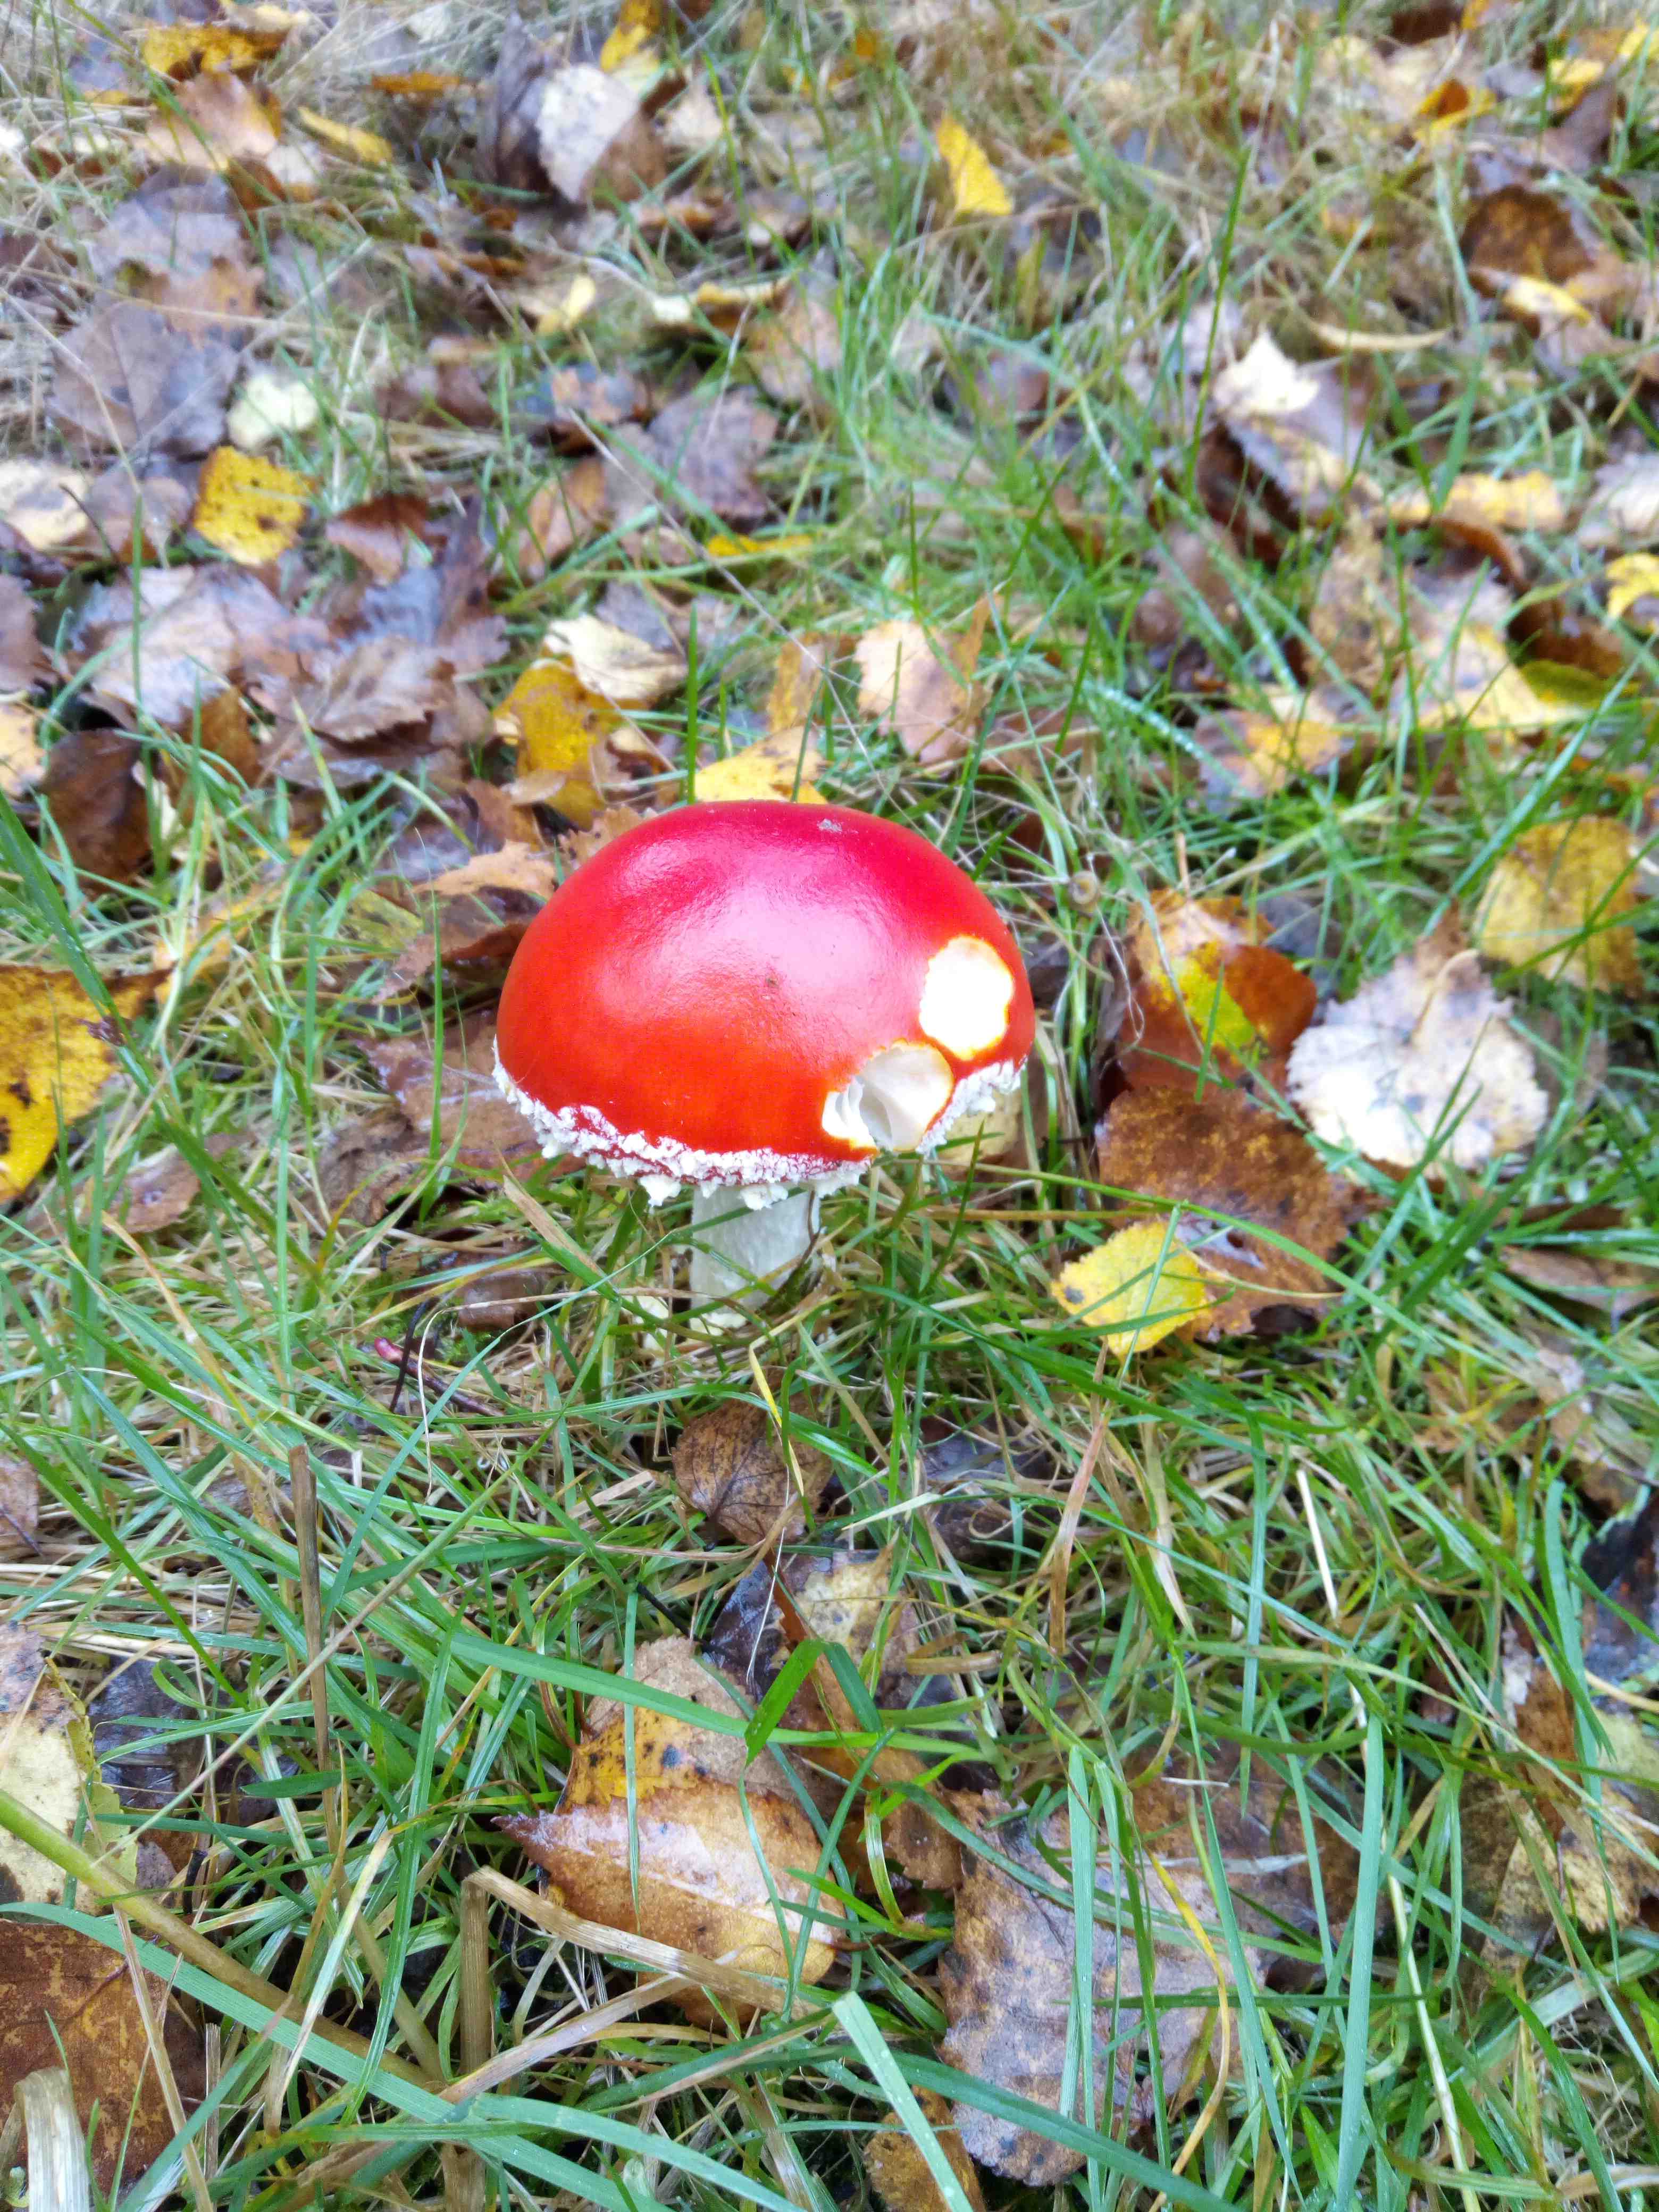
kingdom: Fungi
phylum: Basidiomycota
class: Agaricomycetes
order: Agaricales
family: Amanitaceae
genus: Amanita
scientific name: Amanita muscaria
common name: rød fluesvamp
